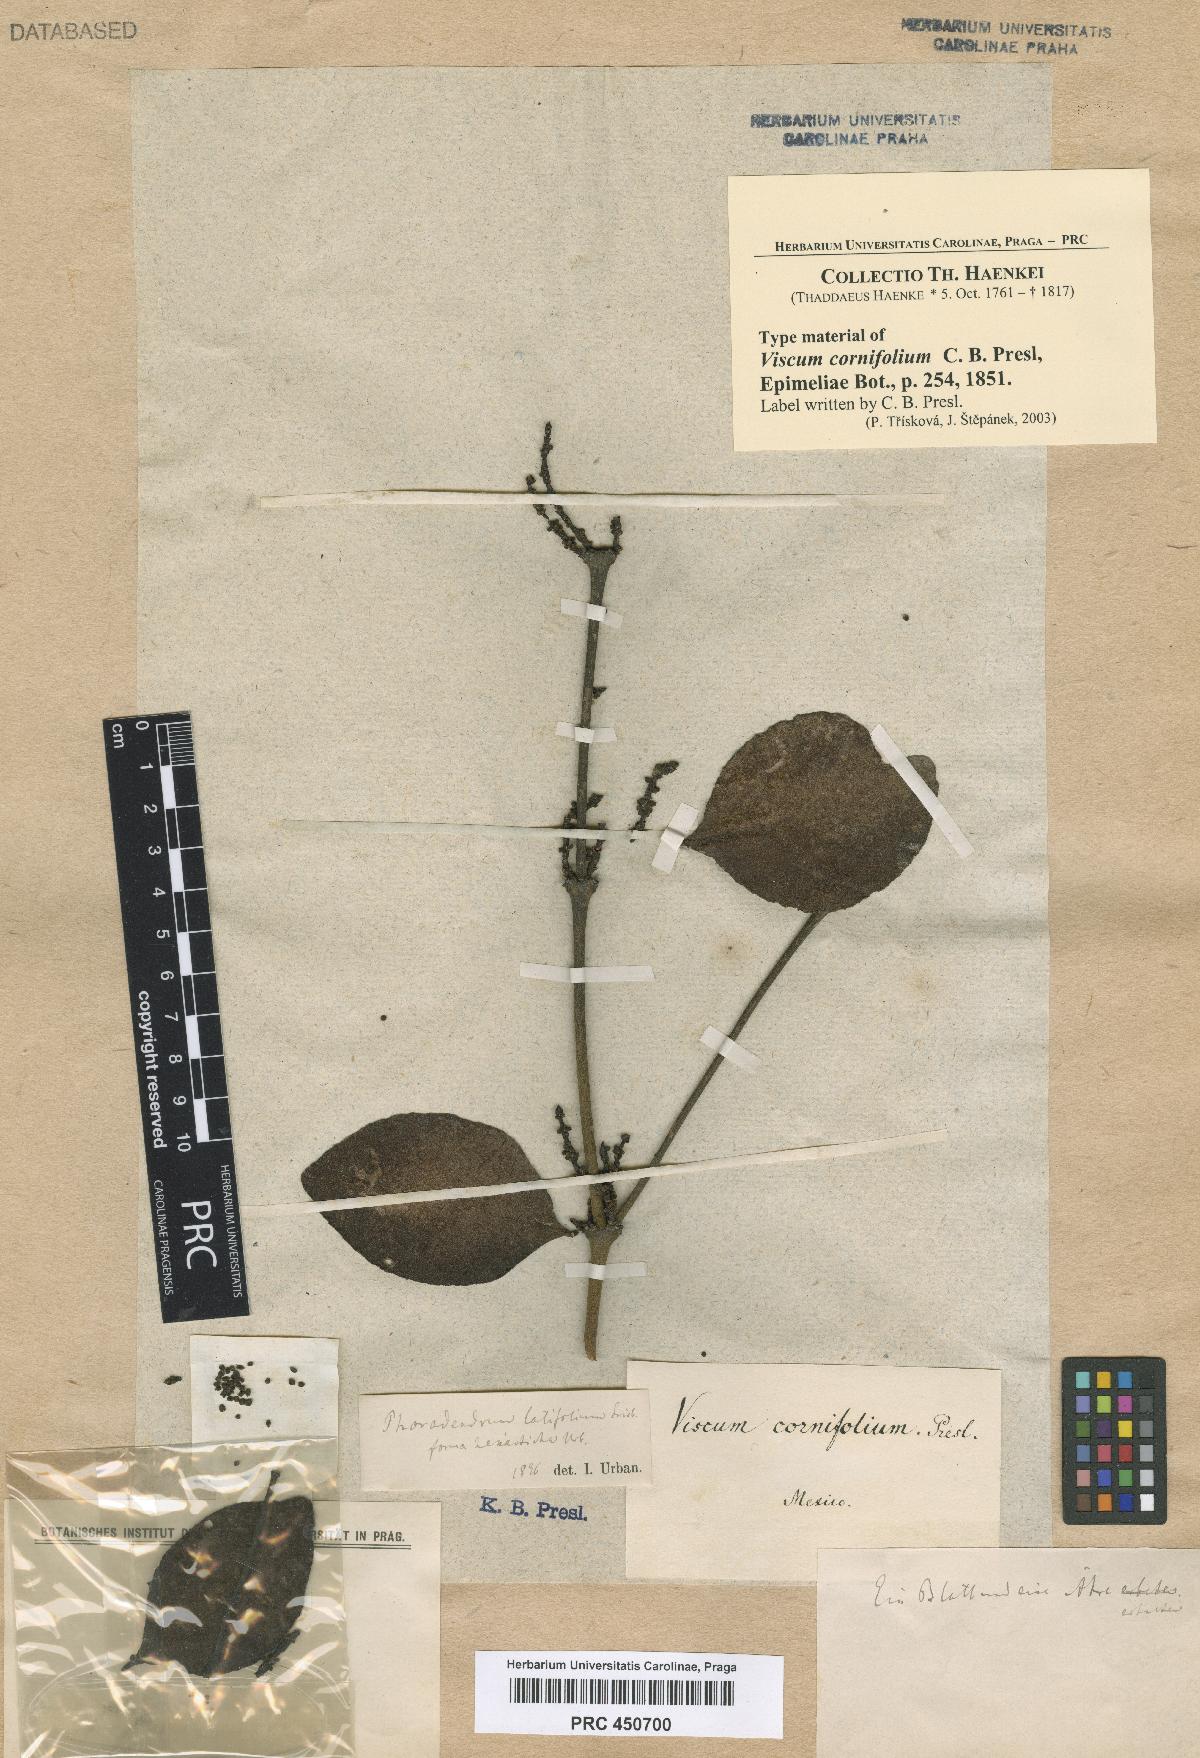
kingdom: Plantae
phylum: Tracheophyta
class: Magnoliopsida
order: Santalales
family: Viscaceae
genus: Phoradendron
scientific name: Phoradendron hexastichum
